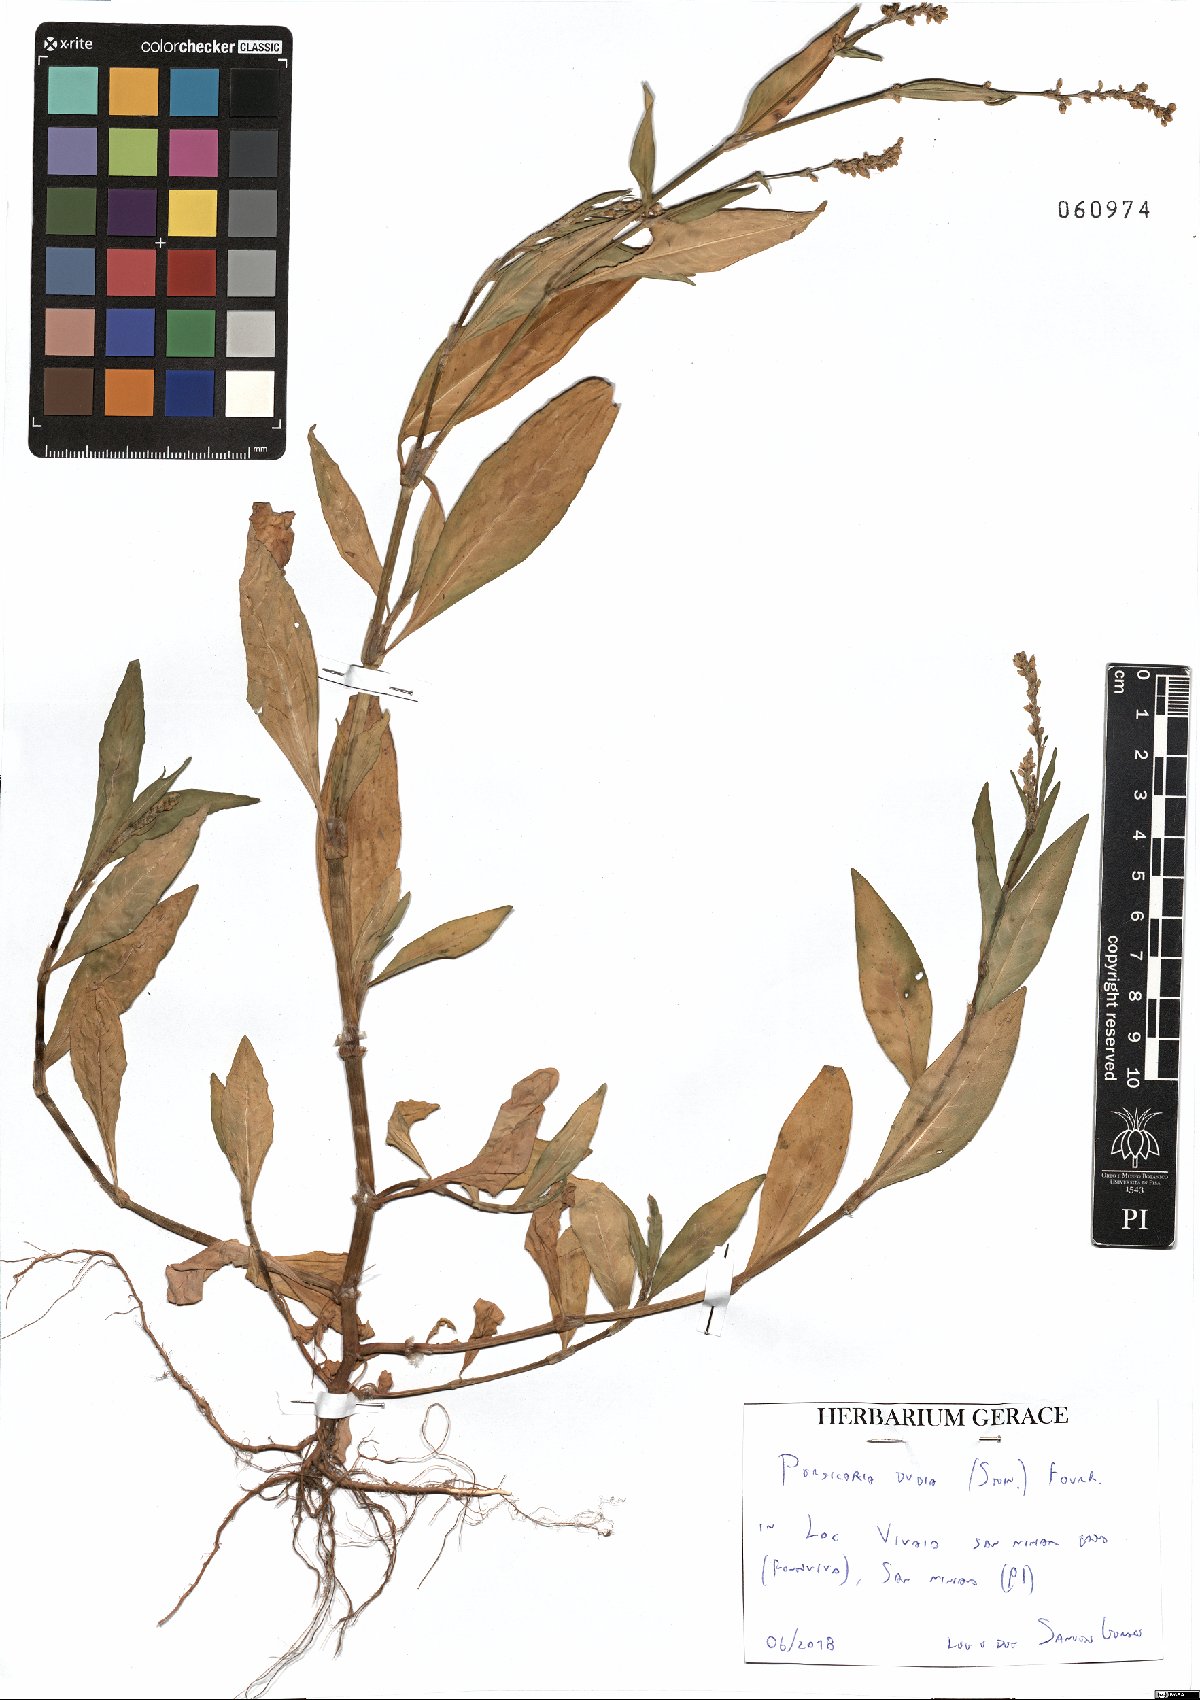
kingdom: Plantae
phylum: Tracheophyta
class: Magnoliopsida
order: Caryophyllales
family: Polygonaceae
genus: Persicaria
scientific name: Persicaria mitis
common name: Tasteless water-pepper
